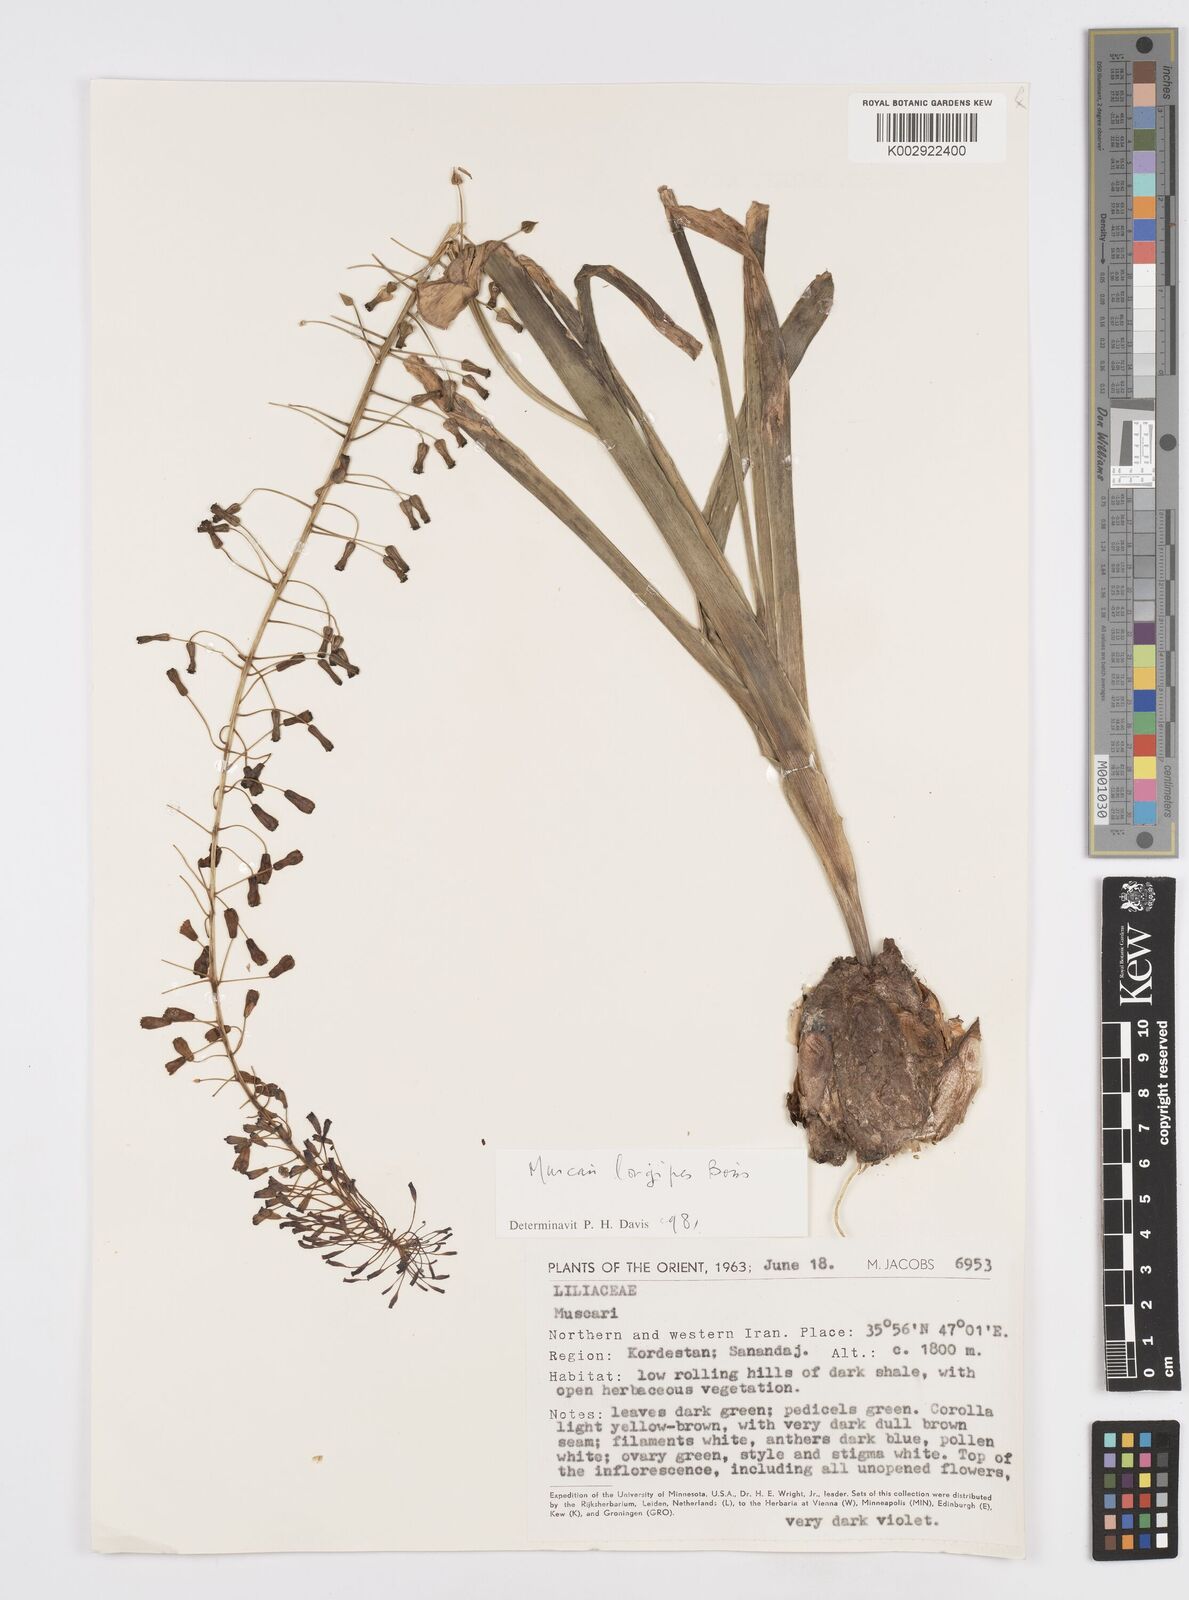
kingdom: Plantae
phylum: Tracheophyta
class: Liliopsida
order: Asparagales
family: Asparagaceae
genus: Muscari
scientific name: Muscari longipes
